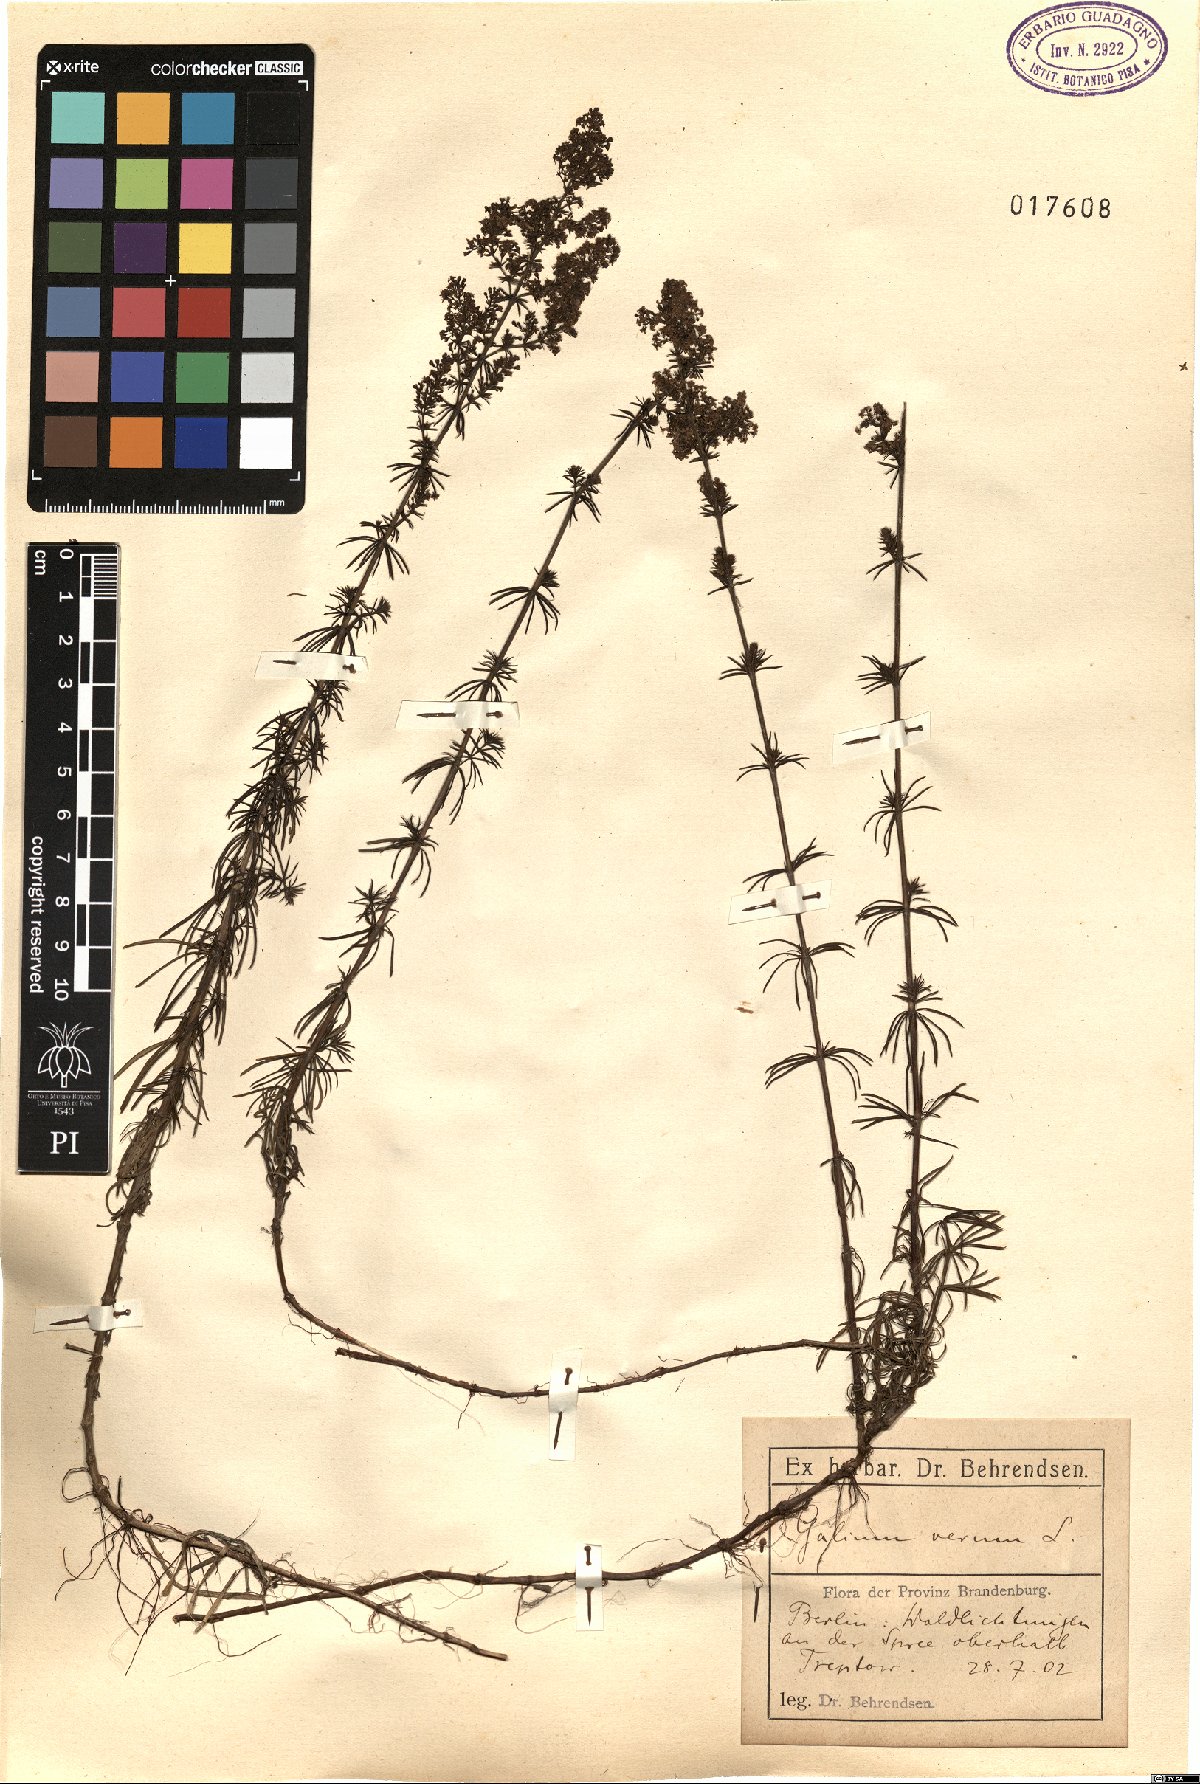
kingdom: Plantae
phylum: Tracheophyta
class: Magnoliopsida
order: Gentianales
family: Rubiaceae
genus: Galium
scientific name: Galium verum
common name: Lady's bedstraw
